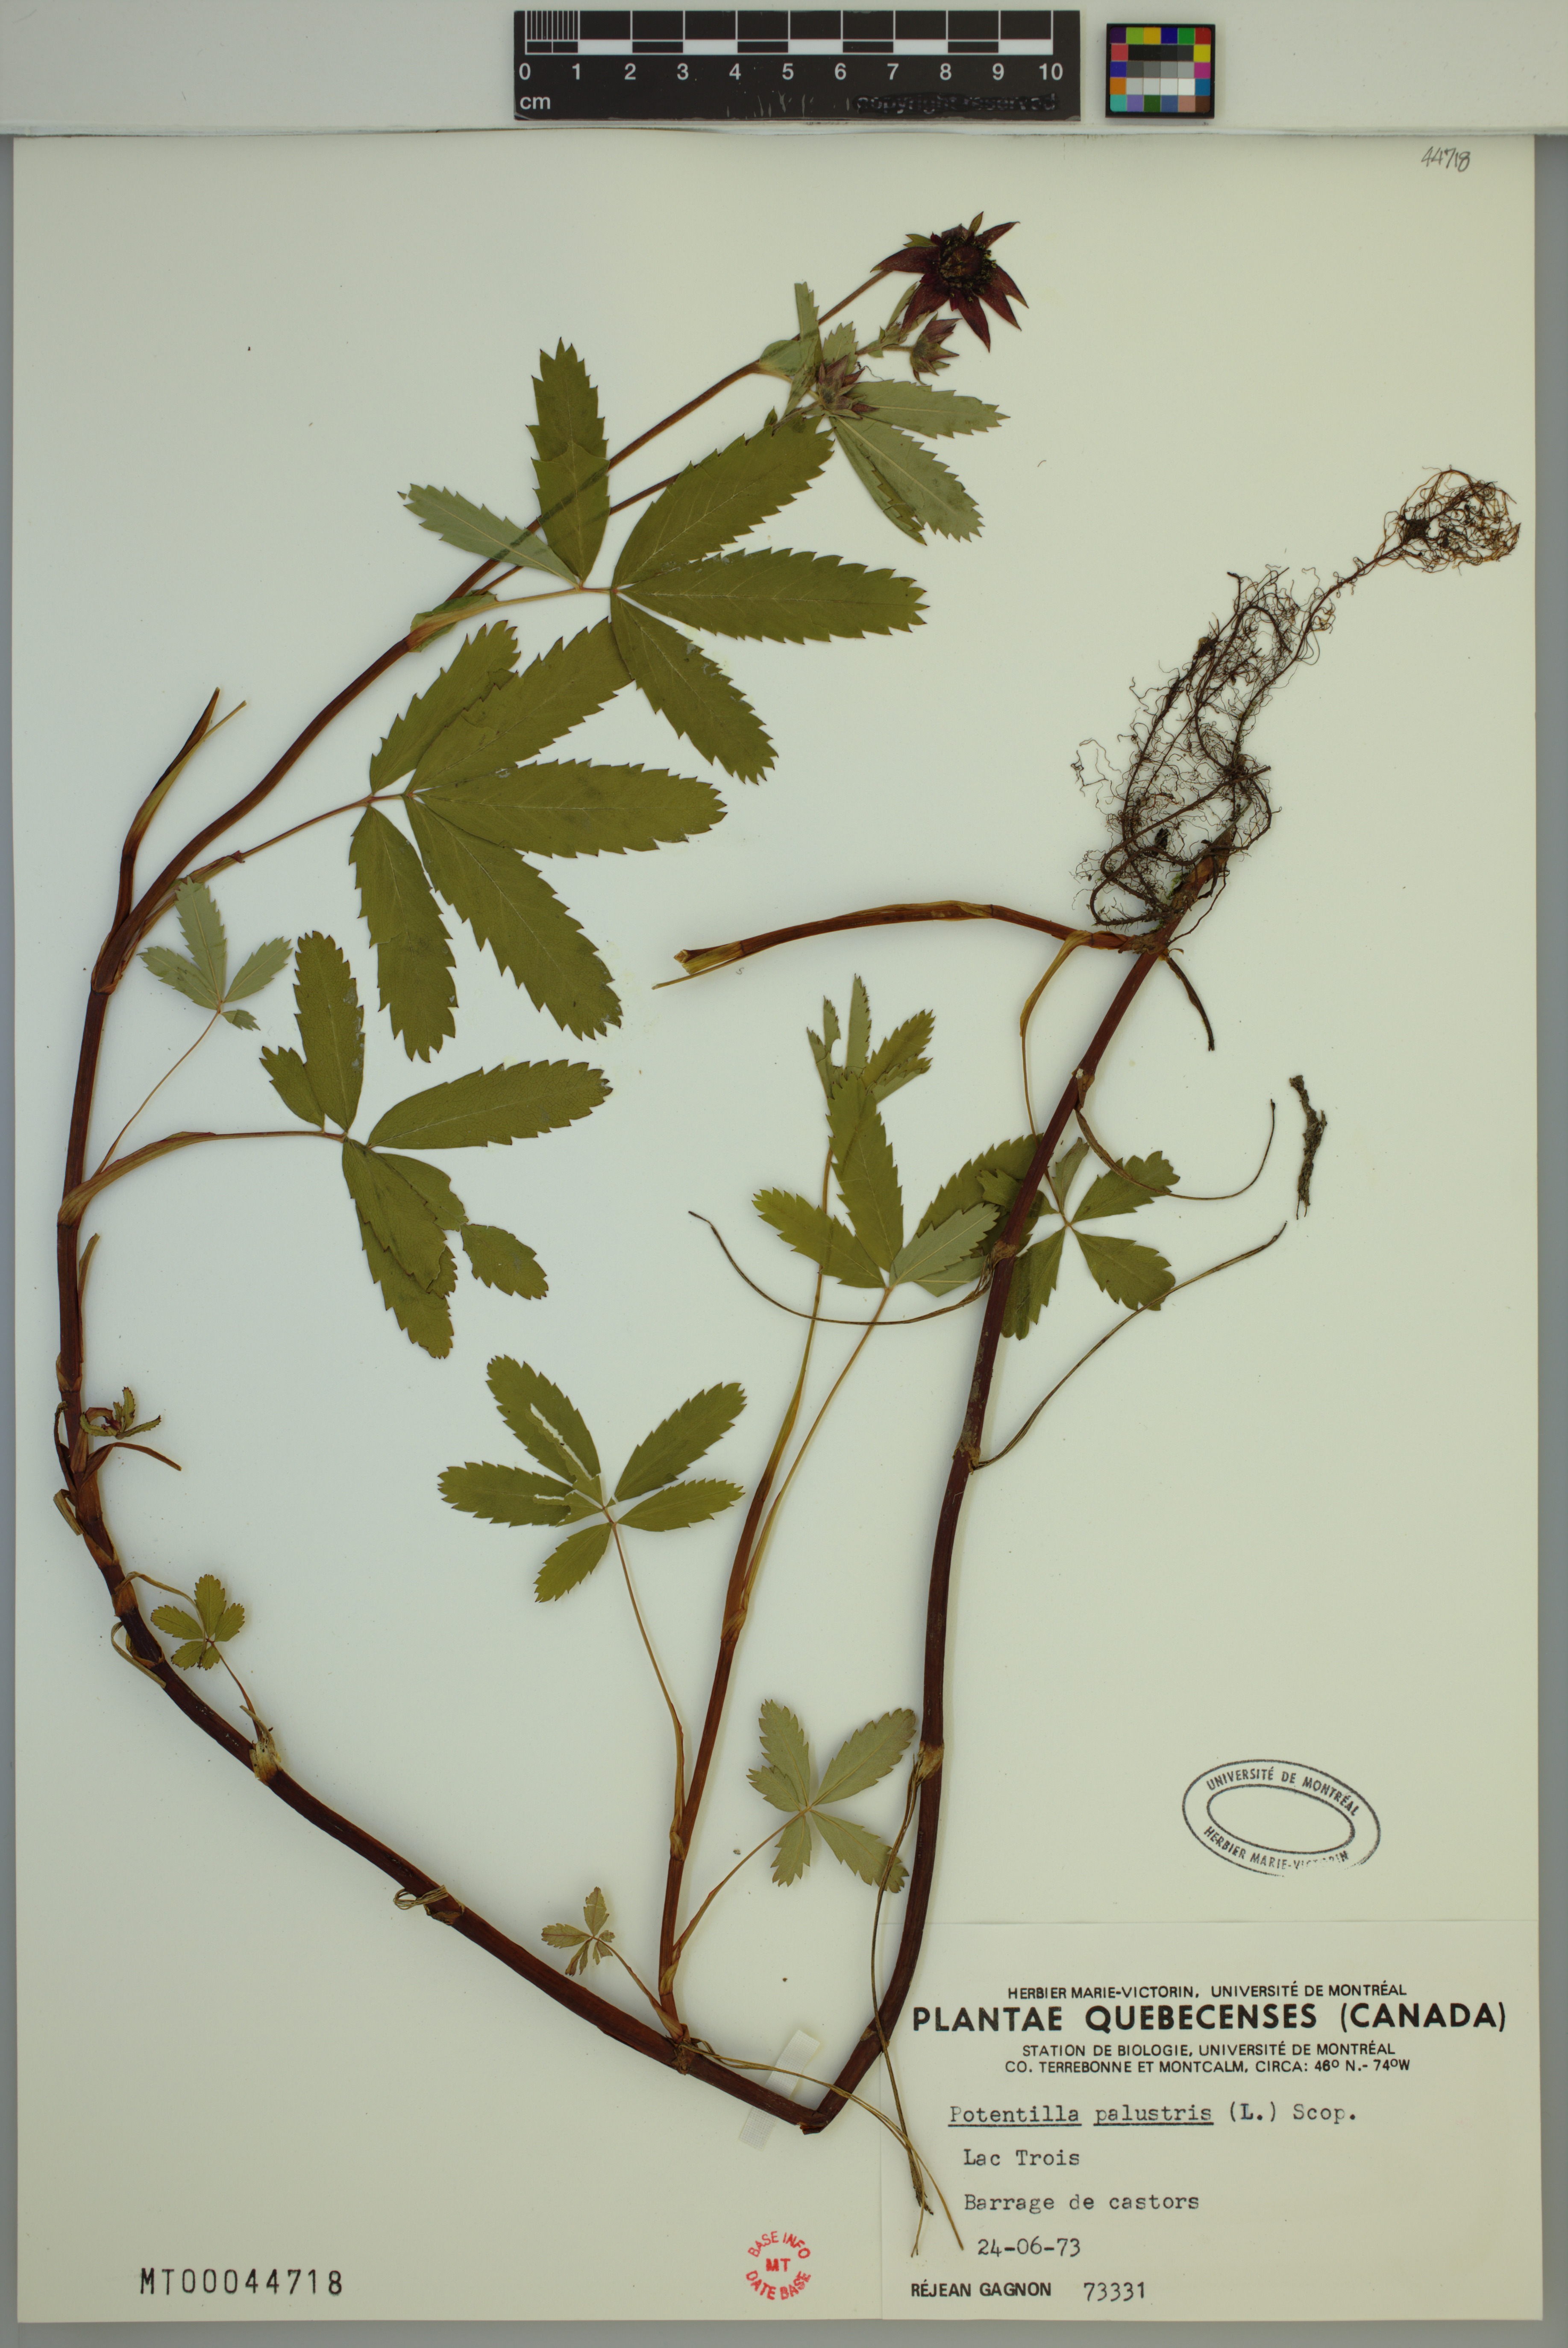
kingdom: Plantae
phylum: Tracheophyta
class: Magnoliopsida
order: Rosales
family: Rosaceae
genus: Comarum
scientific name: Comarum palustre
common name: Marsh cinquefoil
